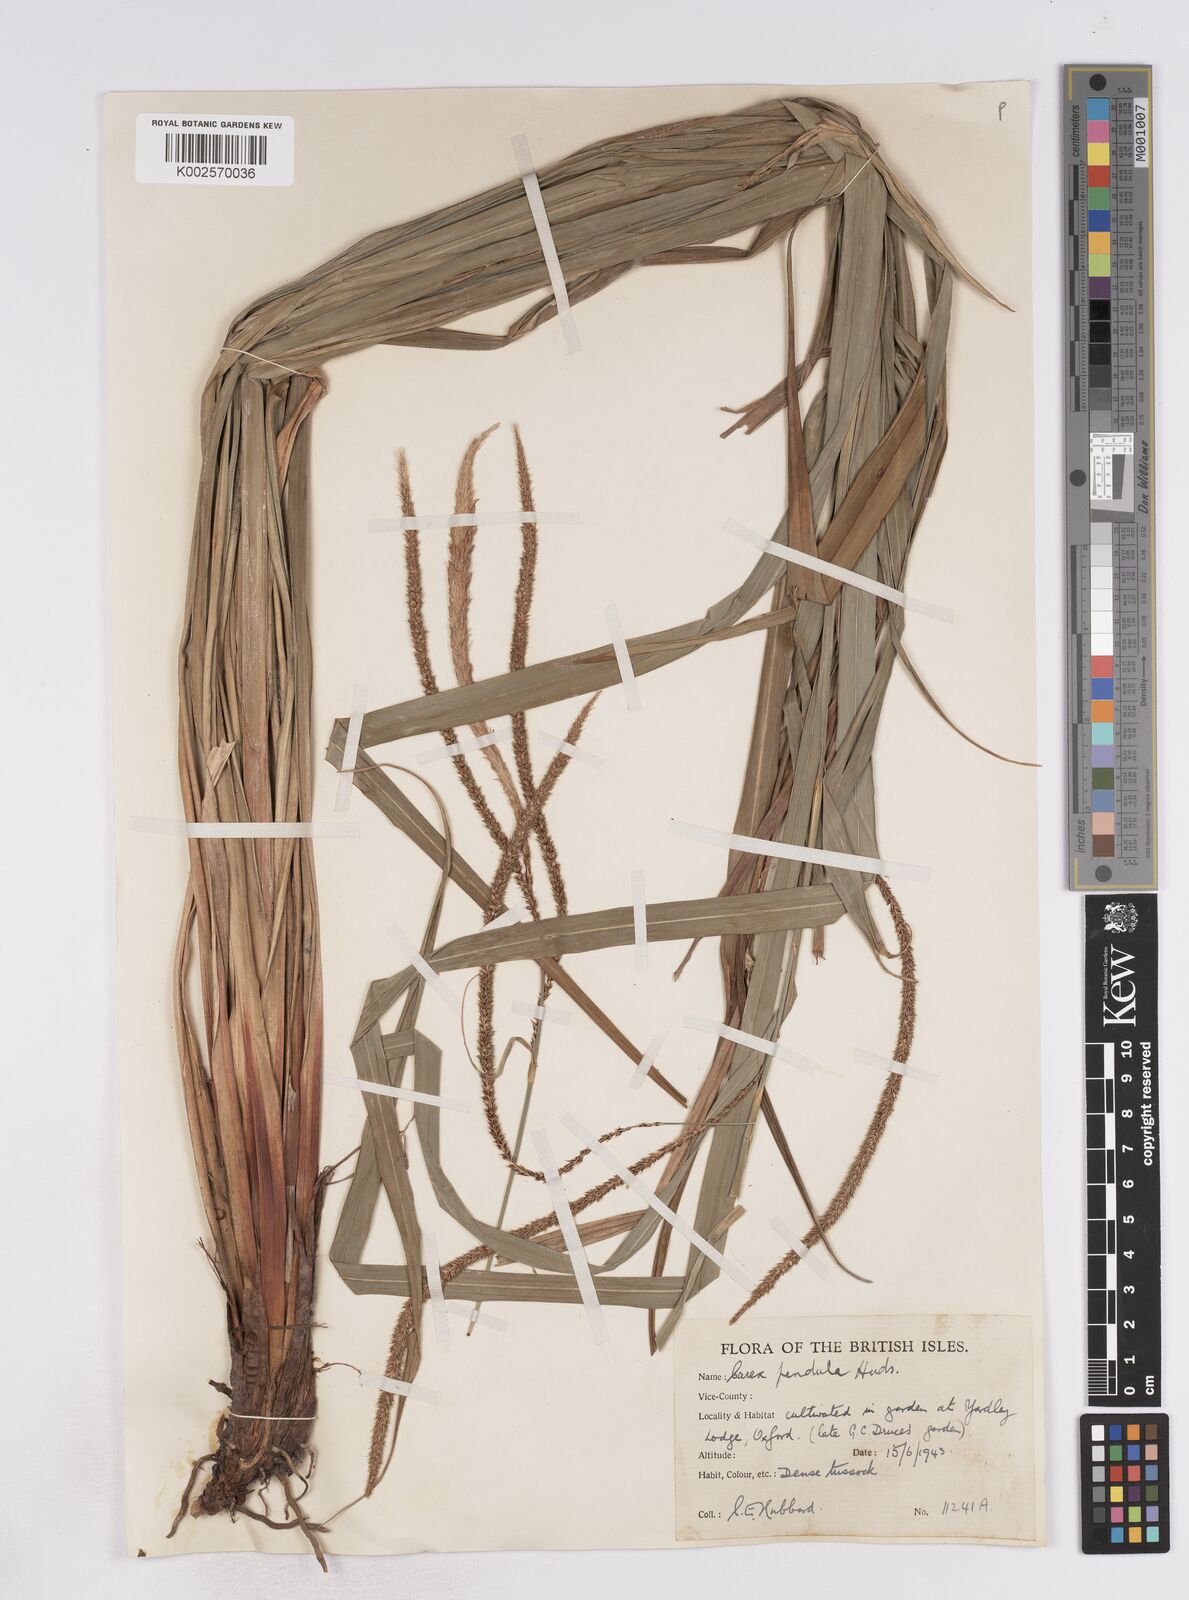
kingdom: Plantae
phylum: Tracheophyta
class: Liliopsida
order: Poales
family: Cyperaceae
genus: Carex
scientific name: Carex pendula
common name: Pendulous sedge
